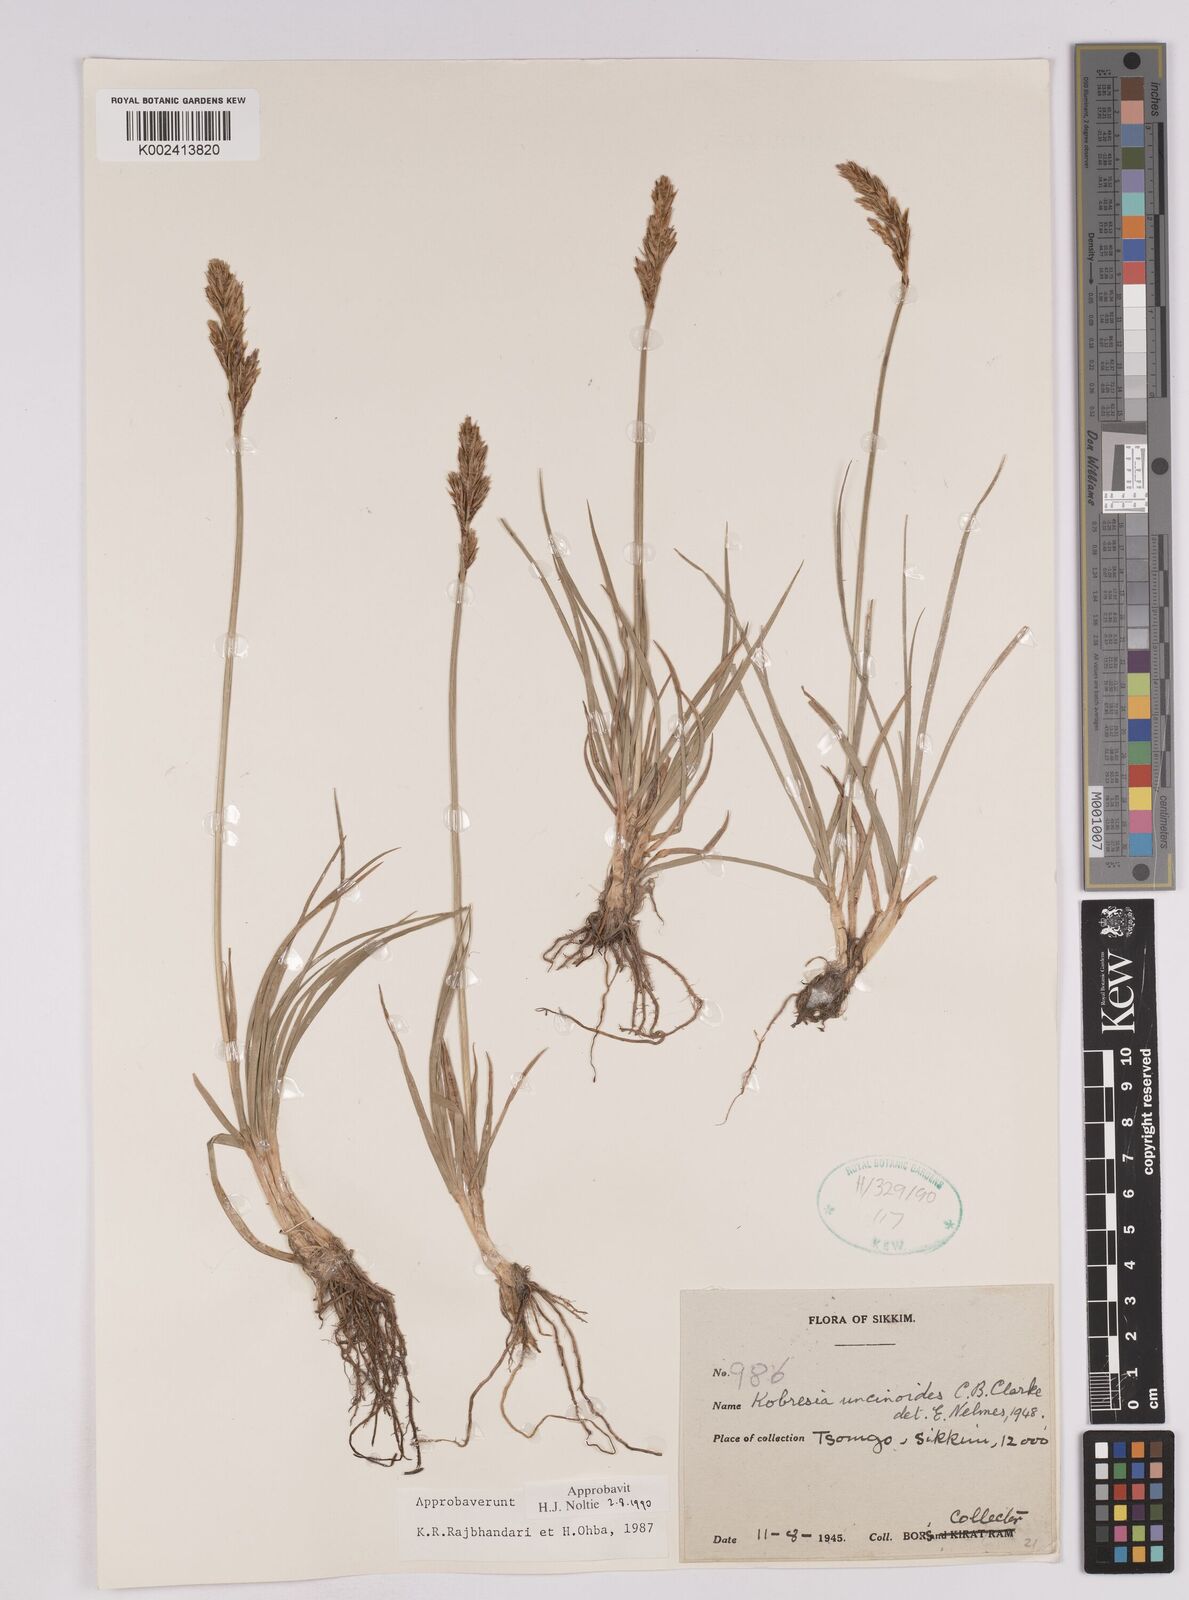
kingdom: Plantae
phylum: Tracheophyta
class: Liliopsida
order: Poales
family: Cyperaceae
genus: Carex
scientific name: Carex uncinioides
